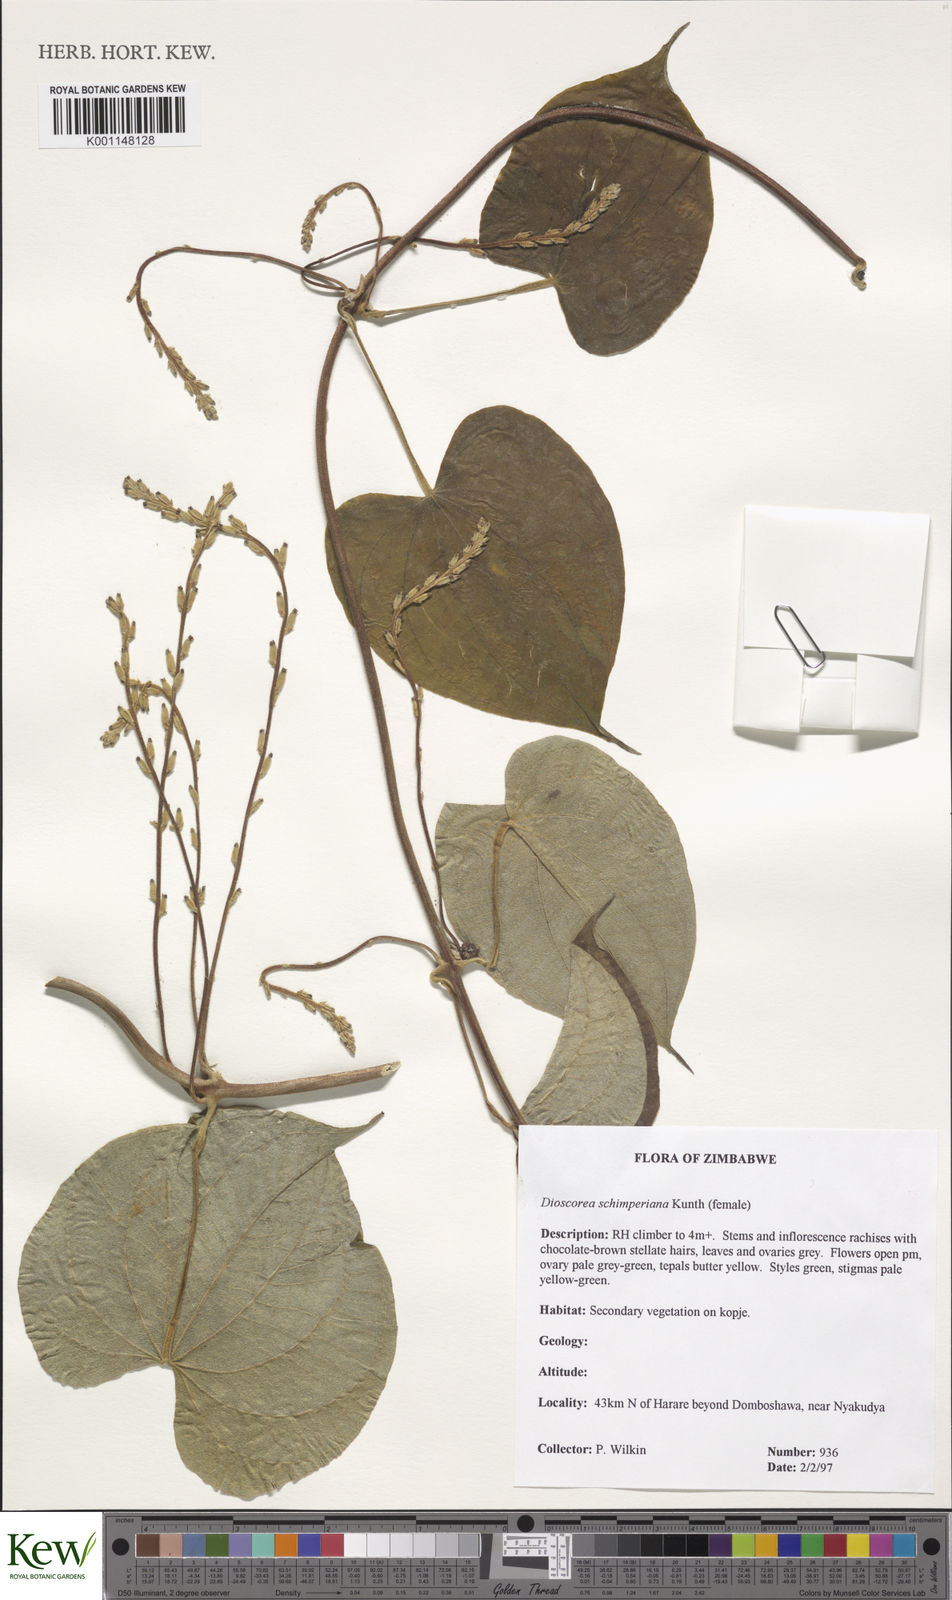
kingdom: Plantae
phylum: Tracheophyta
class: Liliopsida
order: Dioscoreales
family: Dioscoreaceae
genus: Dioscorea
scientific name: Dioscorea schimperiana
